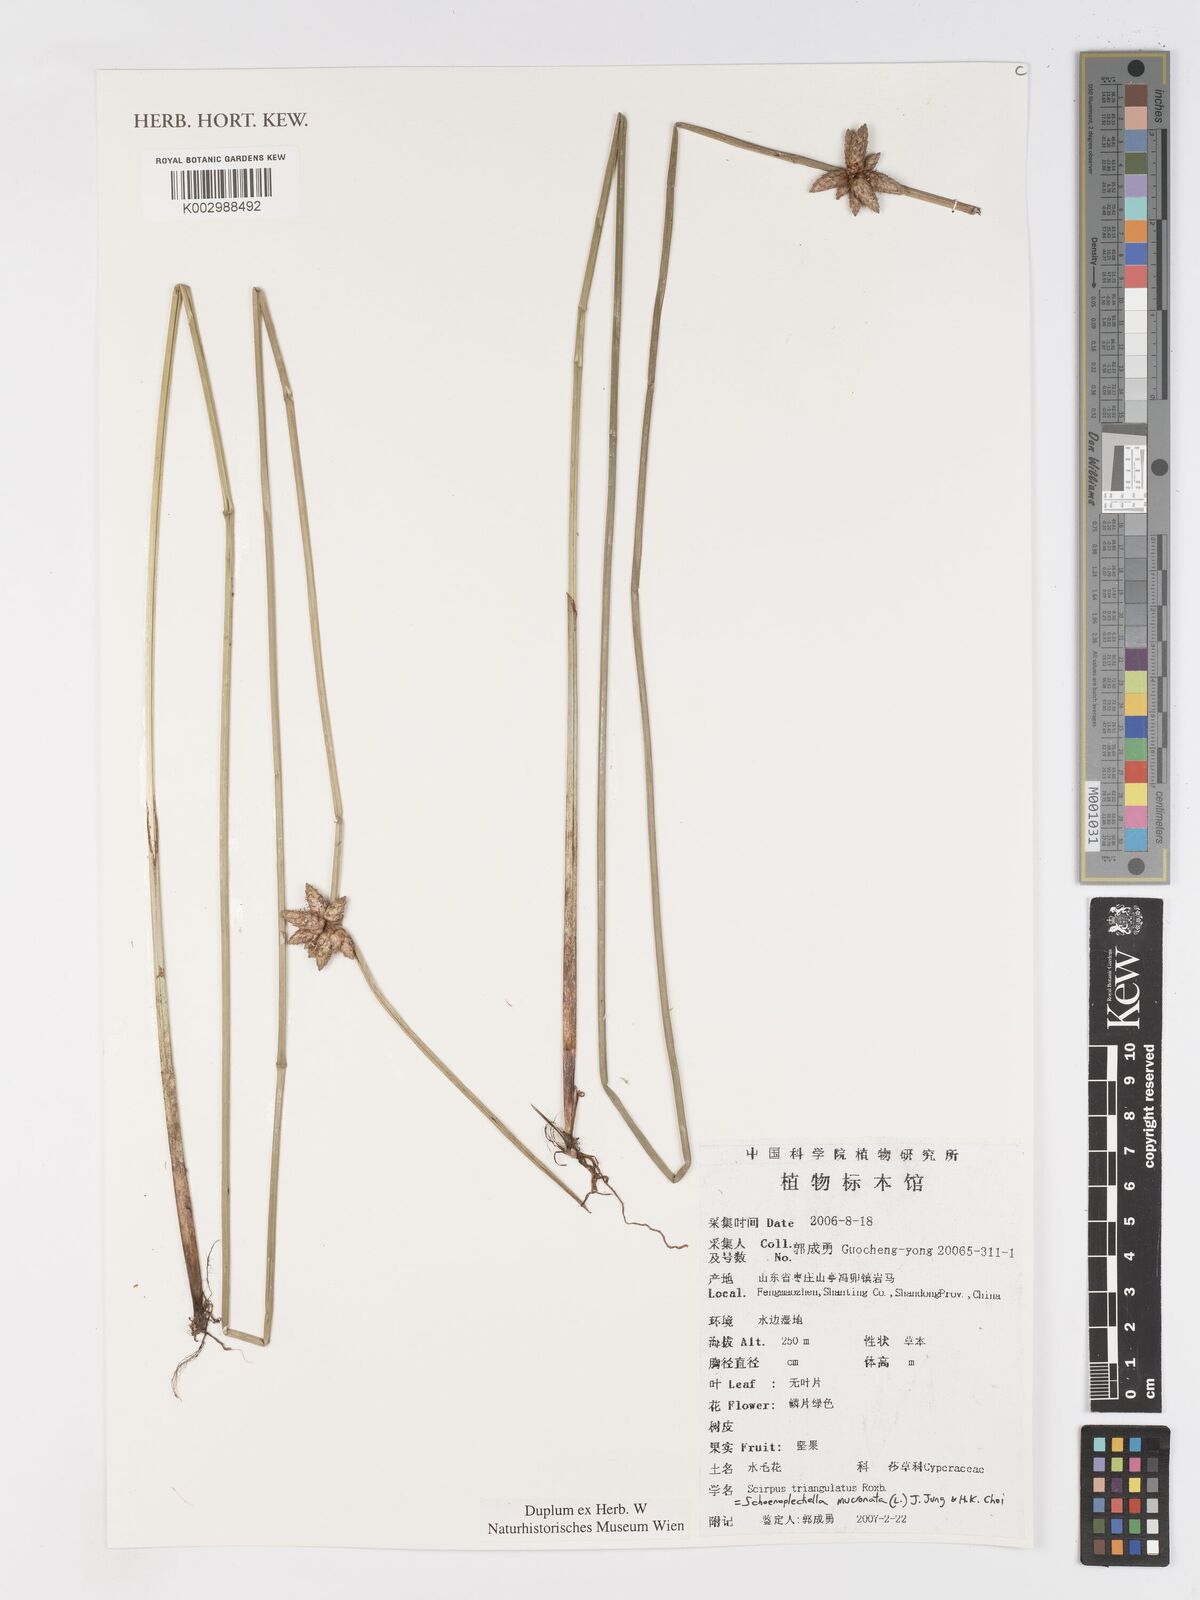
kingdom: Plantae
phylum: Tracheophyta
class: Liliopsida
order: Poales
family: Cyperaceae
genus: Schoenoplectiella
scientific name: Schoenoplectiella mucronata
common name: Bog bulrush
